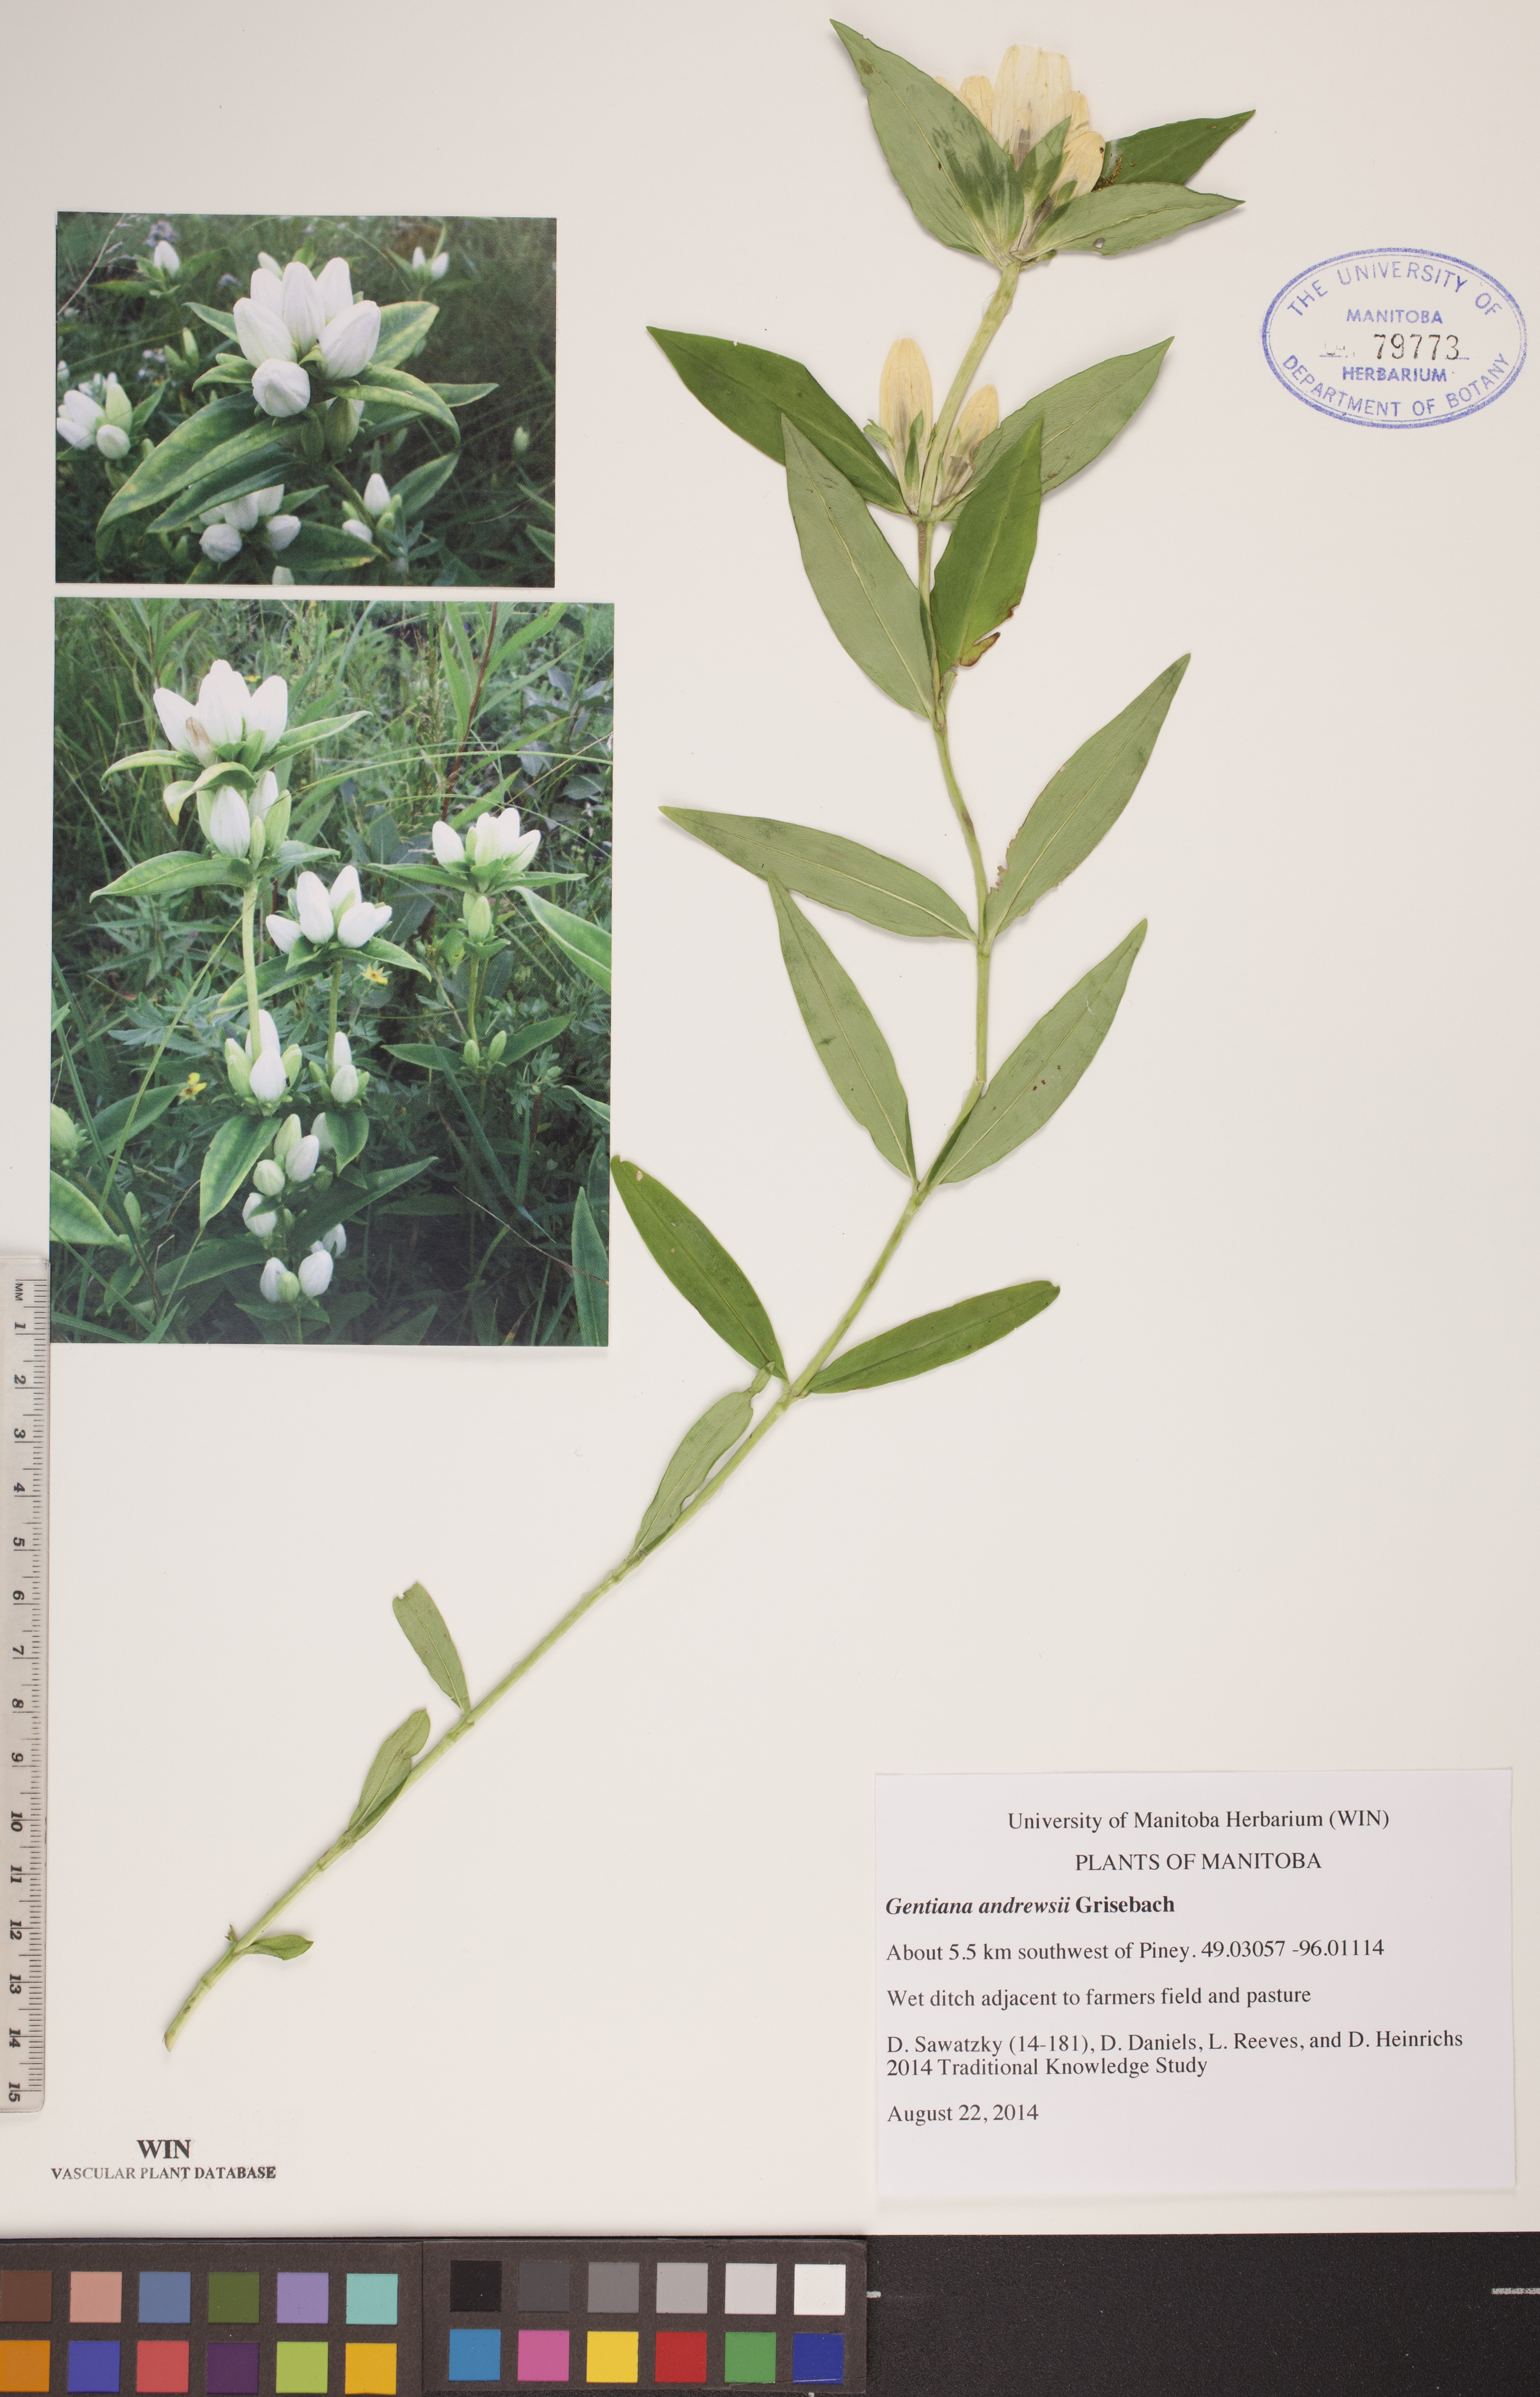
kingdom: Plantae
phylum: Tracheophyta
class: Magnoliopsida
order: Gentianales
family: Gentianaceae
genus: Gentiana
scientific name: Gentiana andrewsii
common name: Bottle gentian
